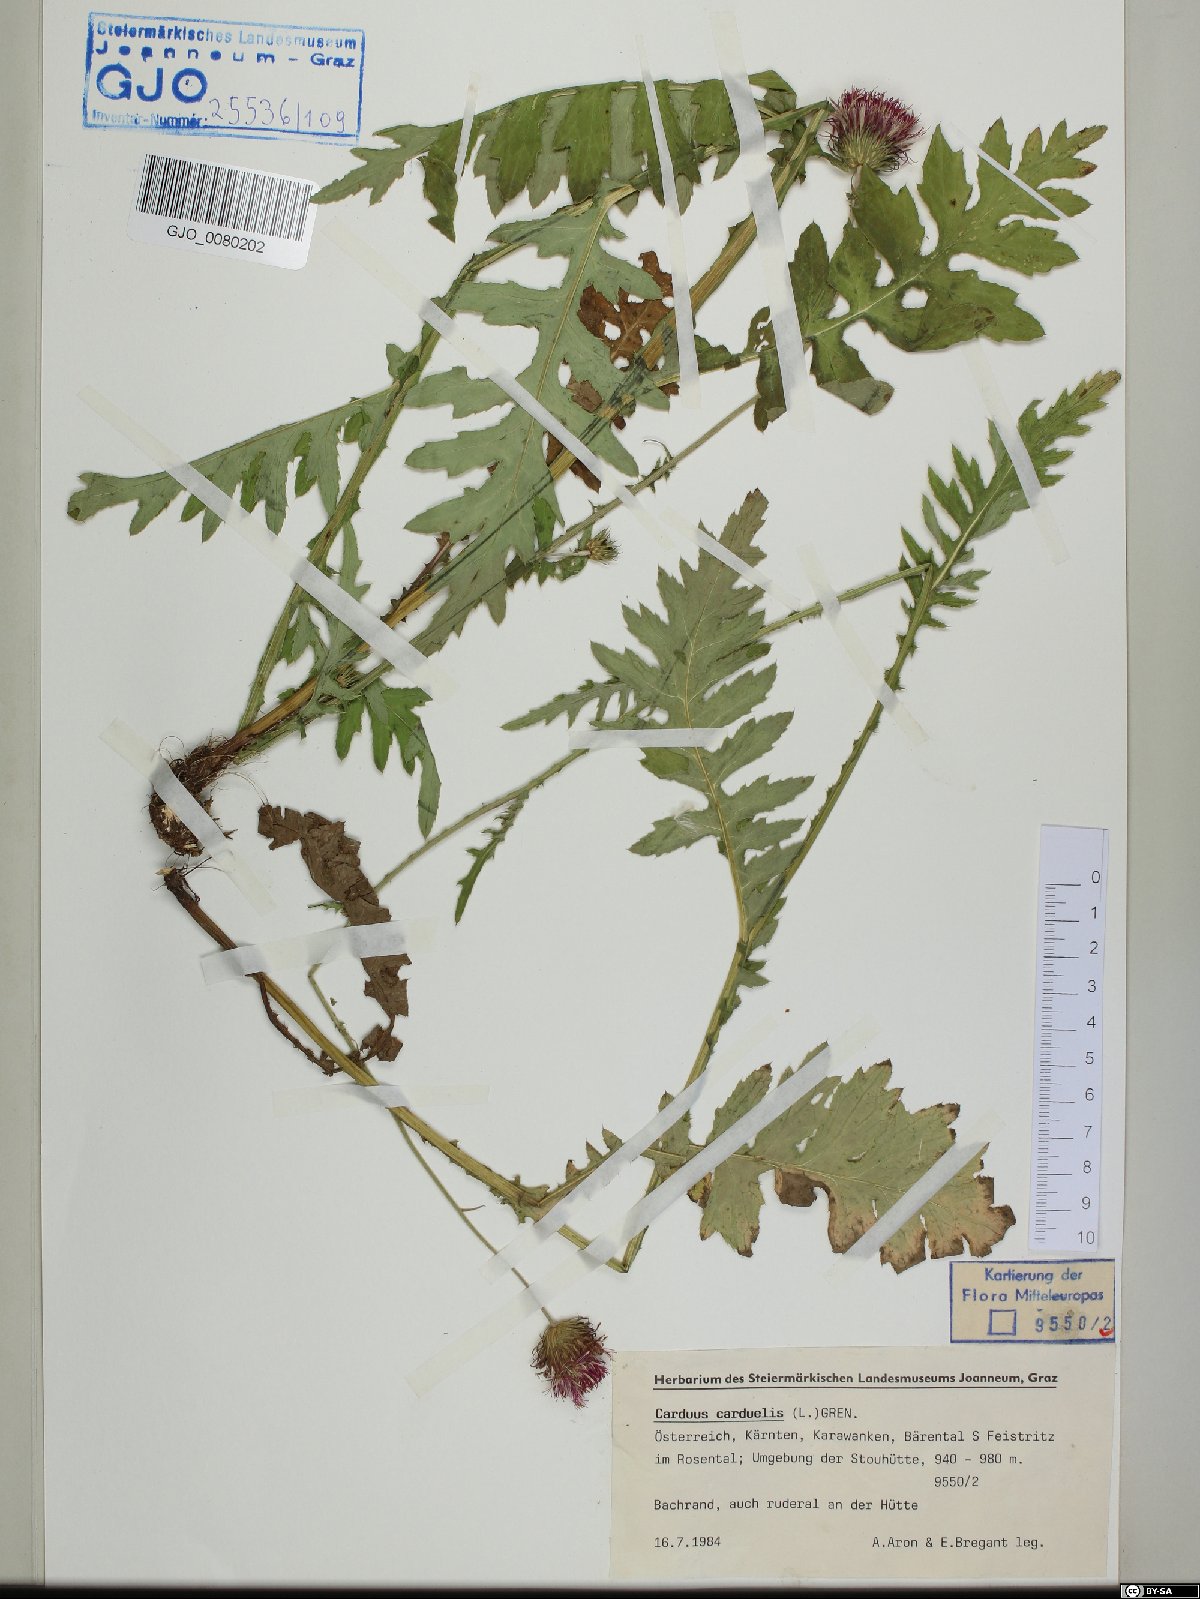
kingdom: Plantae
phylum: Tracheophyta
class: Magnoliopsida
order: Asterales
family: Asteraceae
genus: Carduus
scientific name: Carduus carduelis
